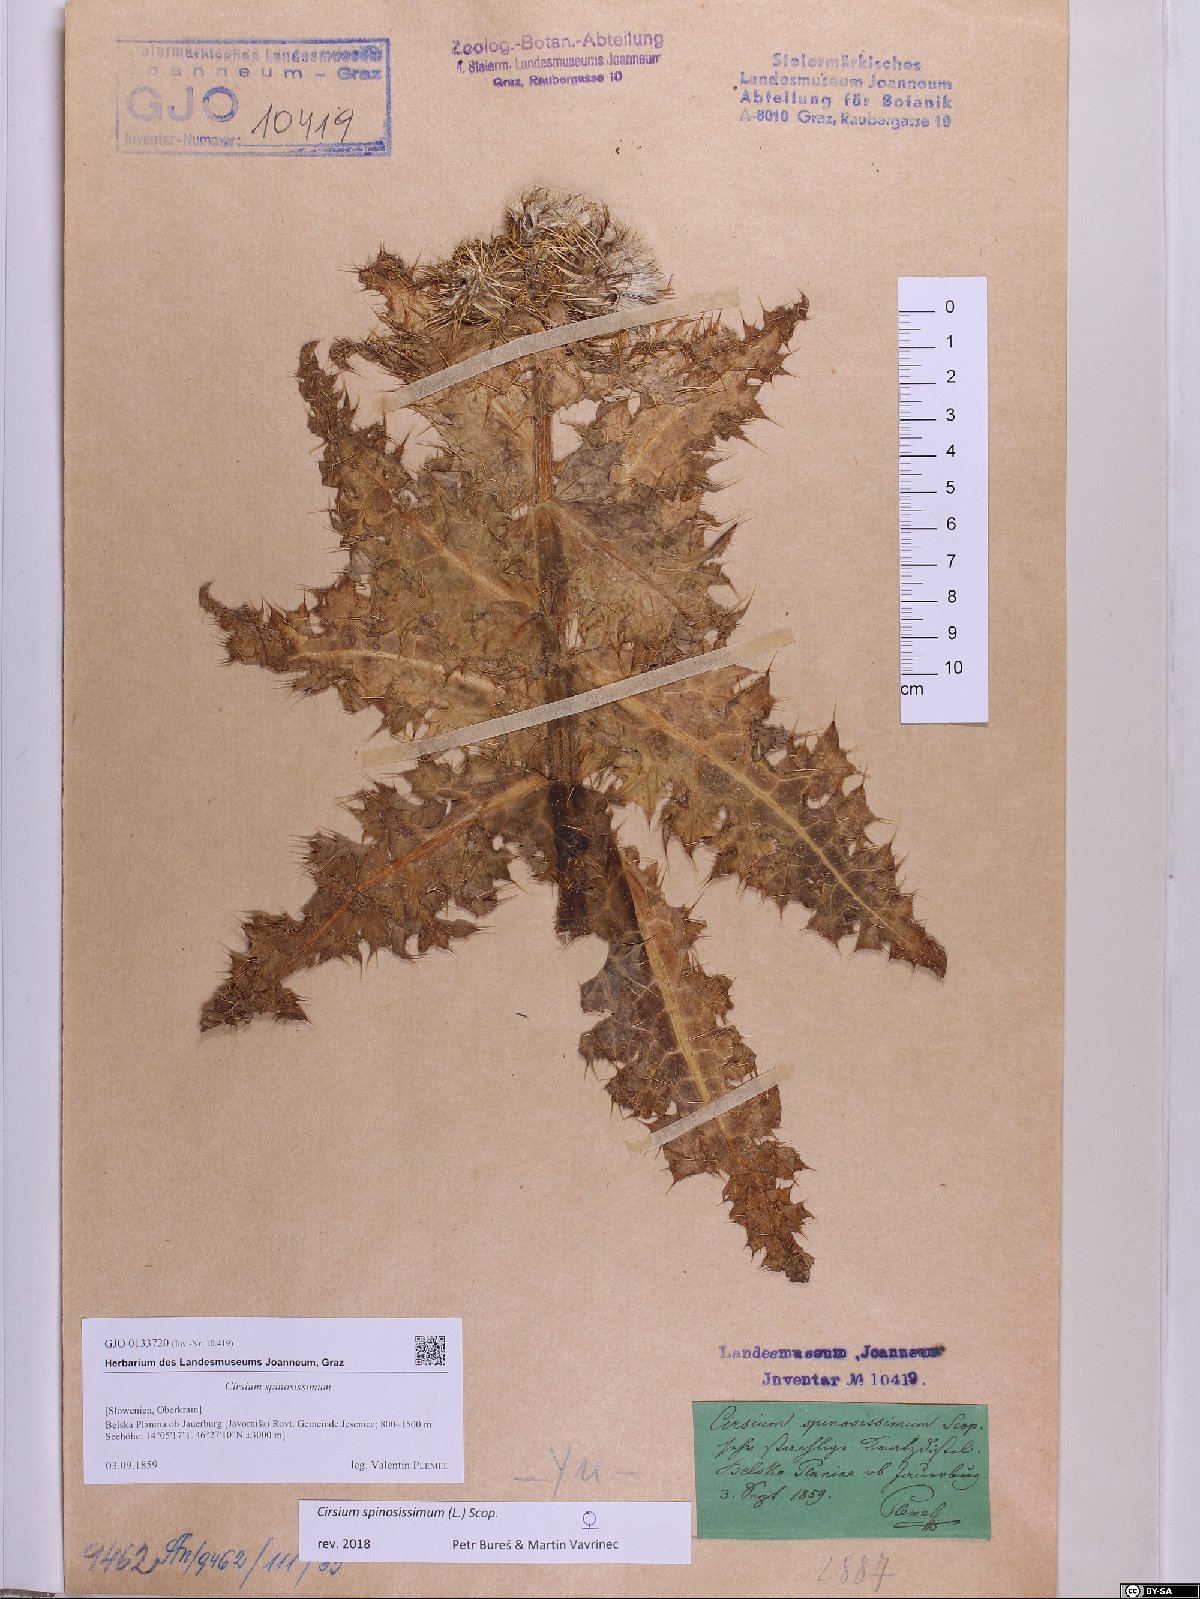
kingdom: Plantae
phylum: Tracheophyta
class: Magnoliopsida
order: Asterales
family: Asteraceae
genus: Cirsium
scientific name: Cirsium spinosissimum
